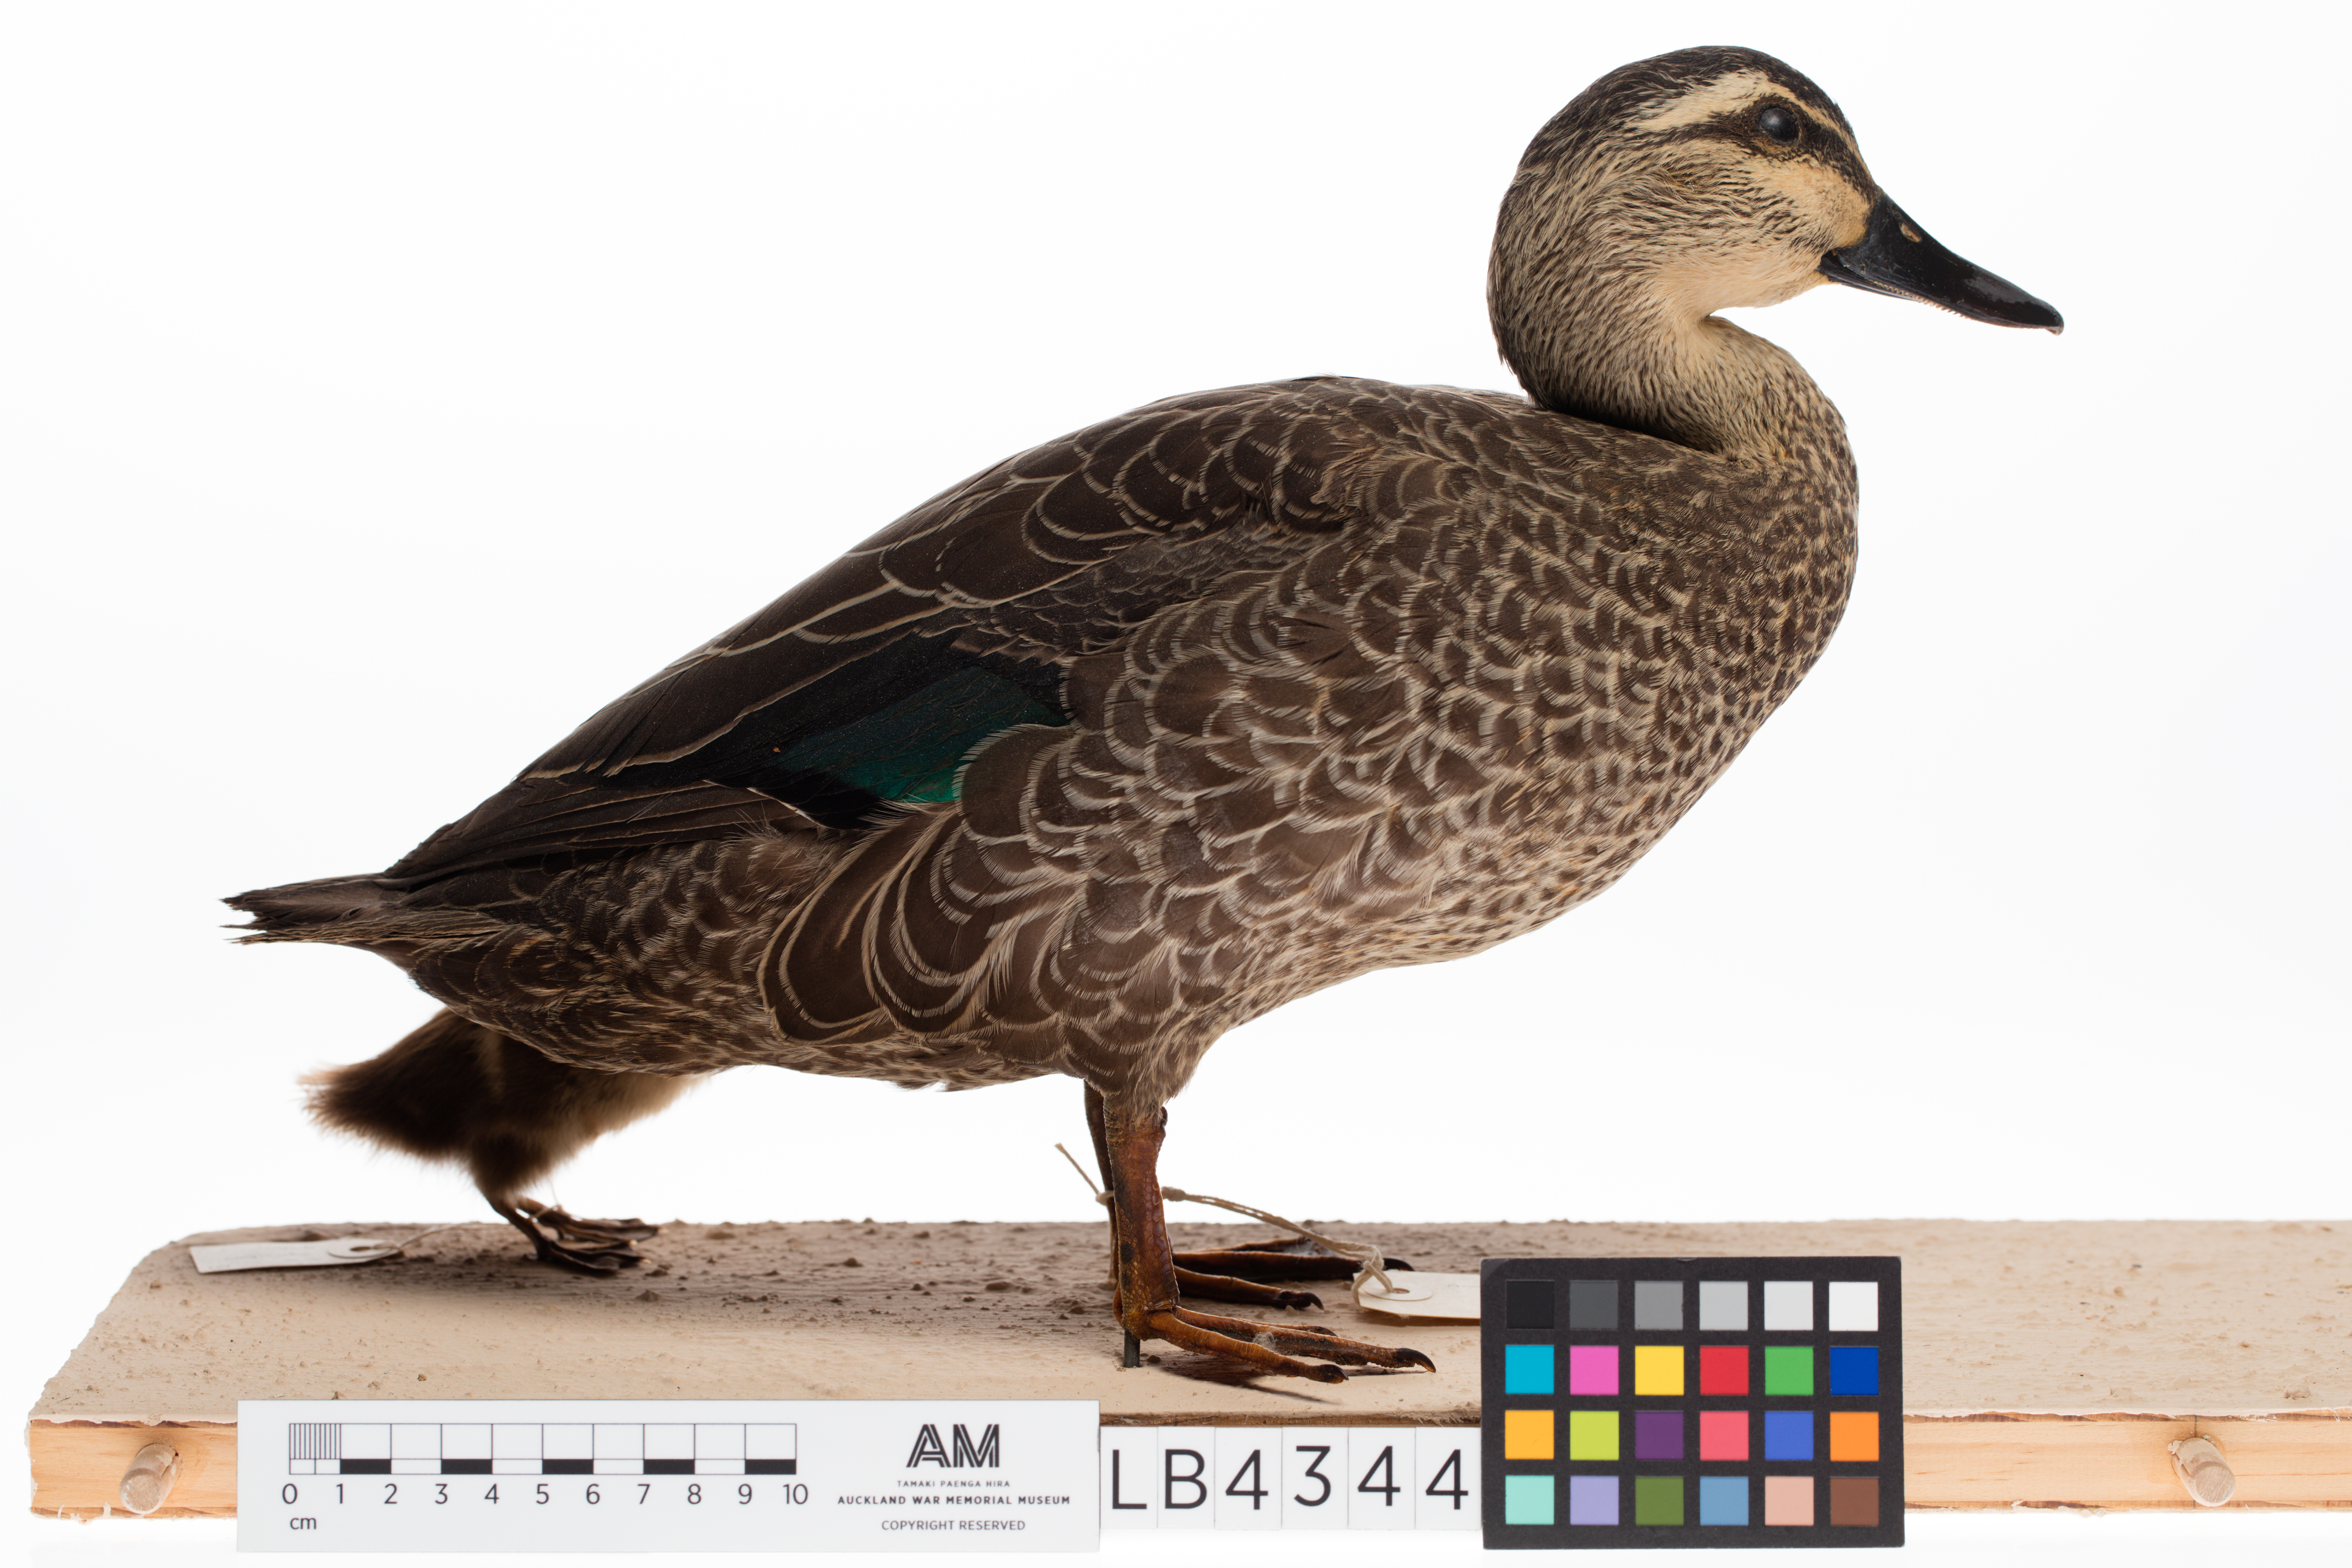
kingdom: Animalia
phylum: Chordata
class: Aves
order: Anseriformes
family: Anatidae
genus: Anas
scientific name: Anas superciliosa
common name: Pacific black duck
